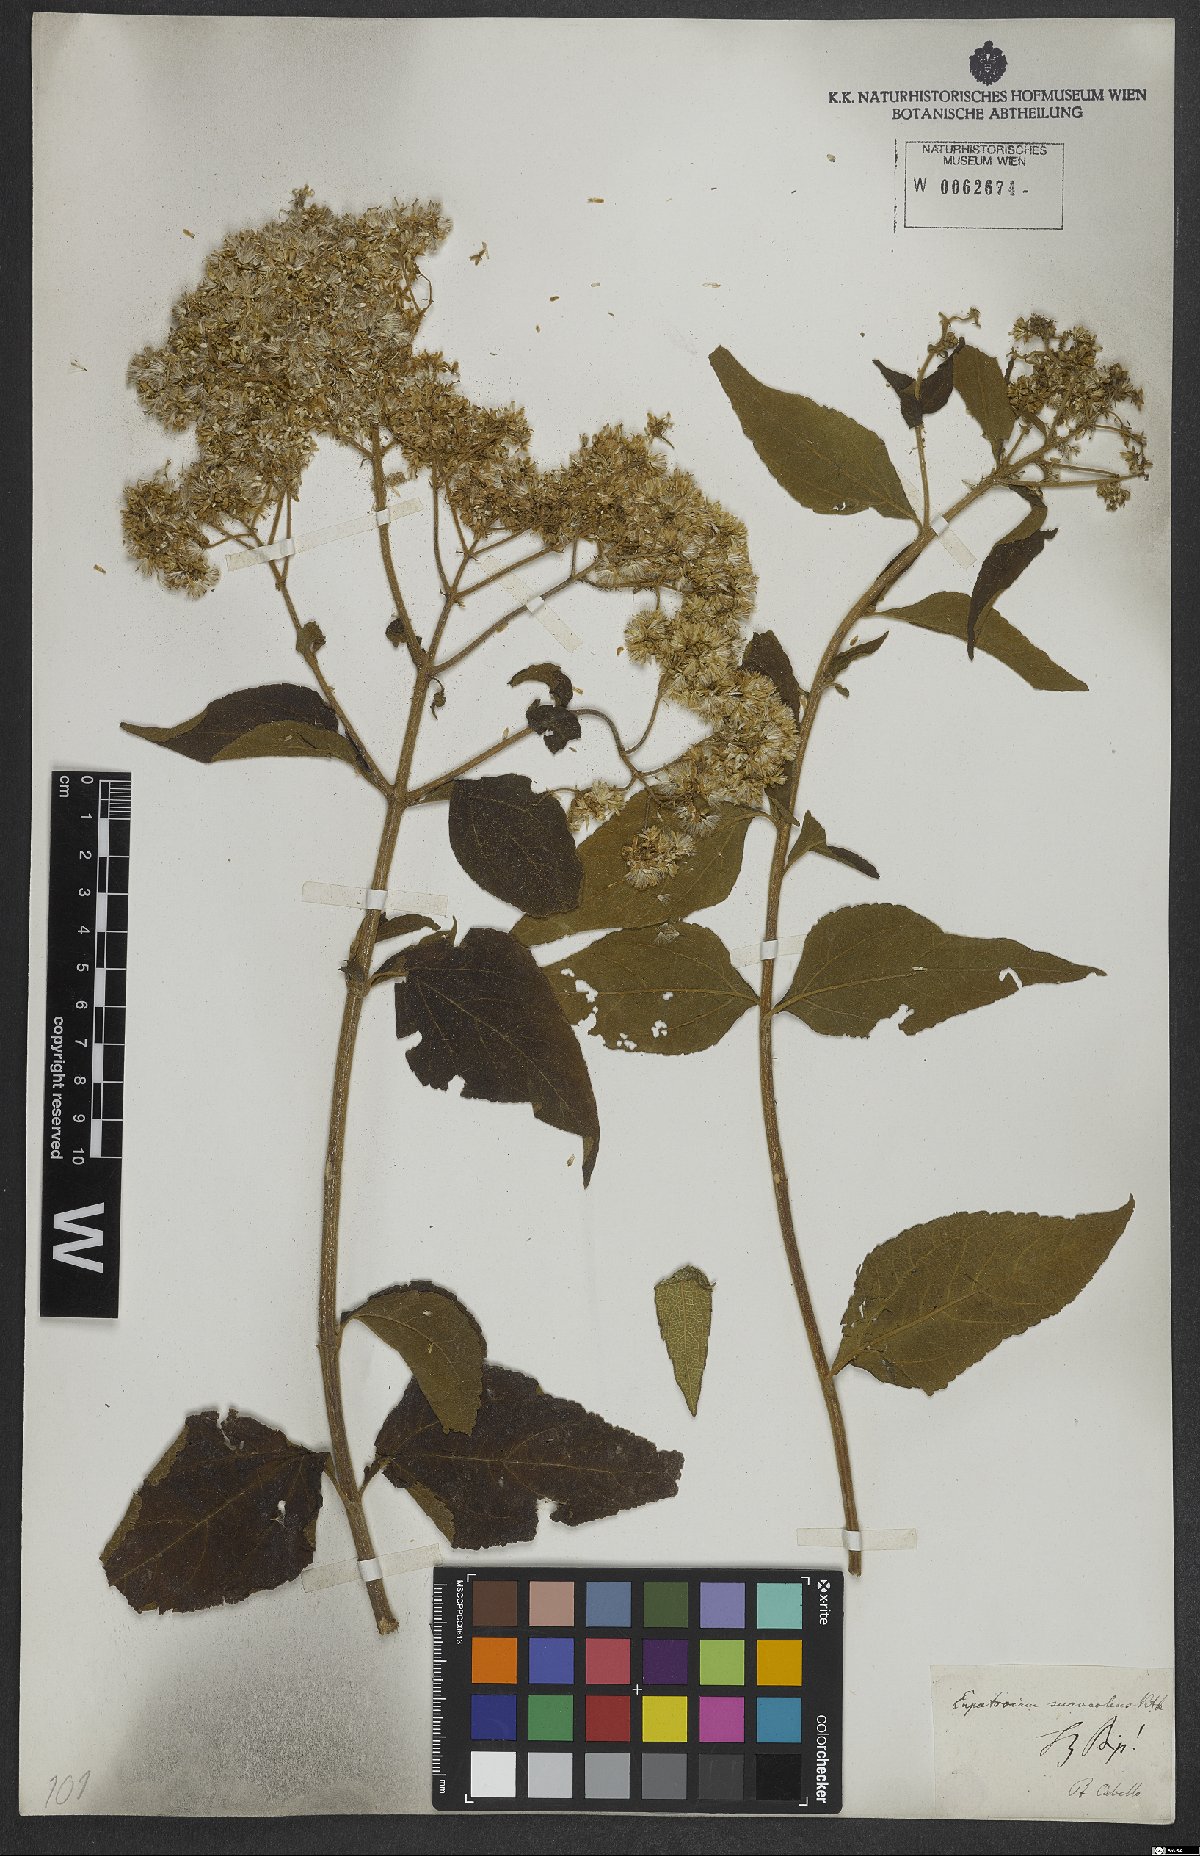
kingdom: Plantae
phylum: Tracheophyta
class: Magnoliopsida
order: Asterales
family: Asteraceae
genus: Austroeupatorium
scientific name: Austroeupatorium silphiifolium
